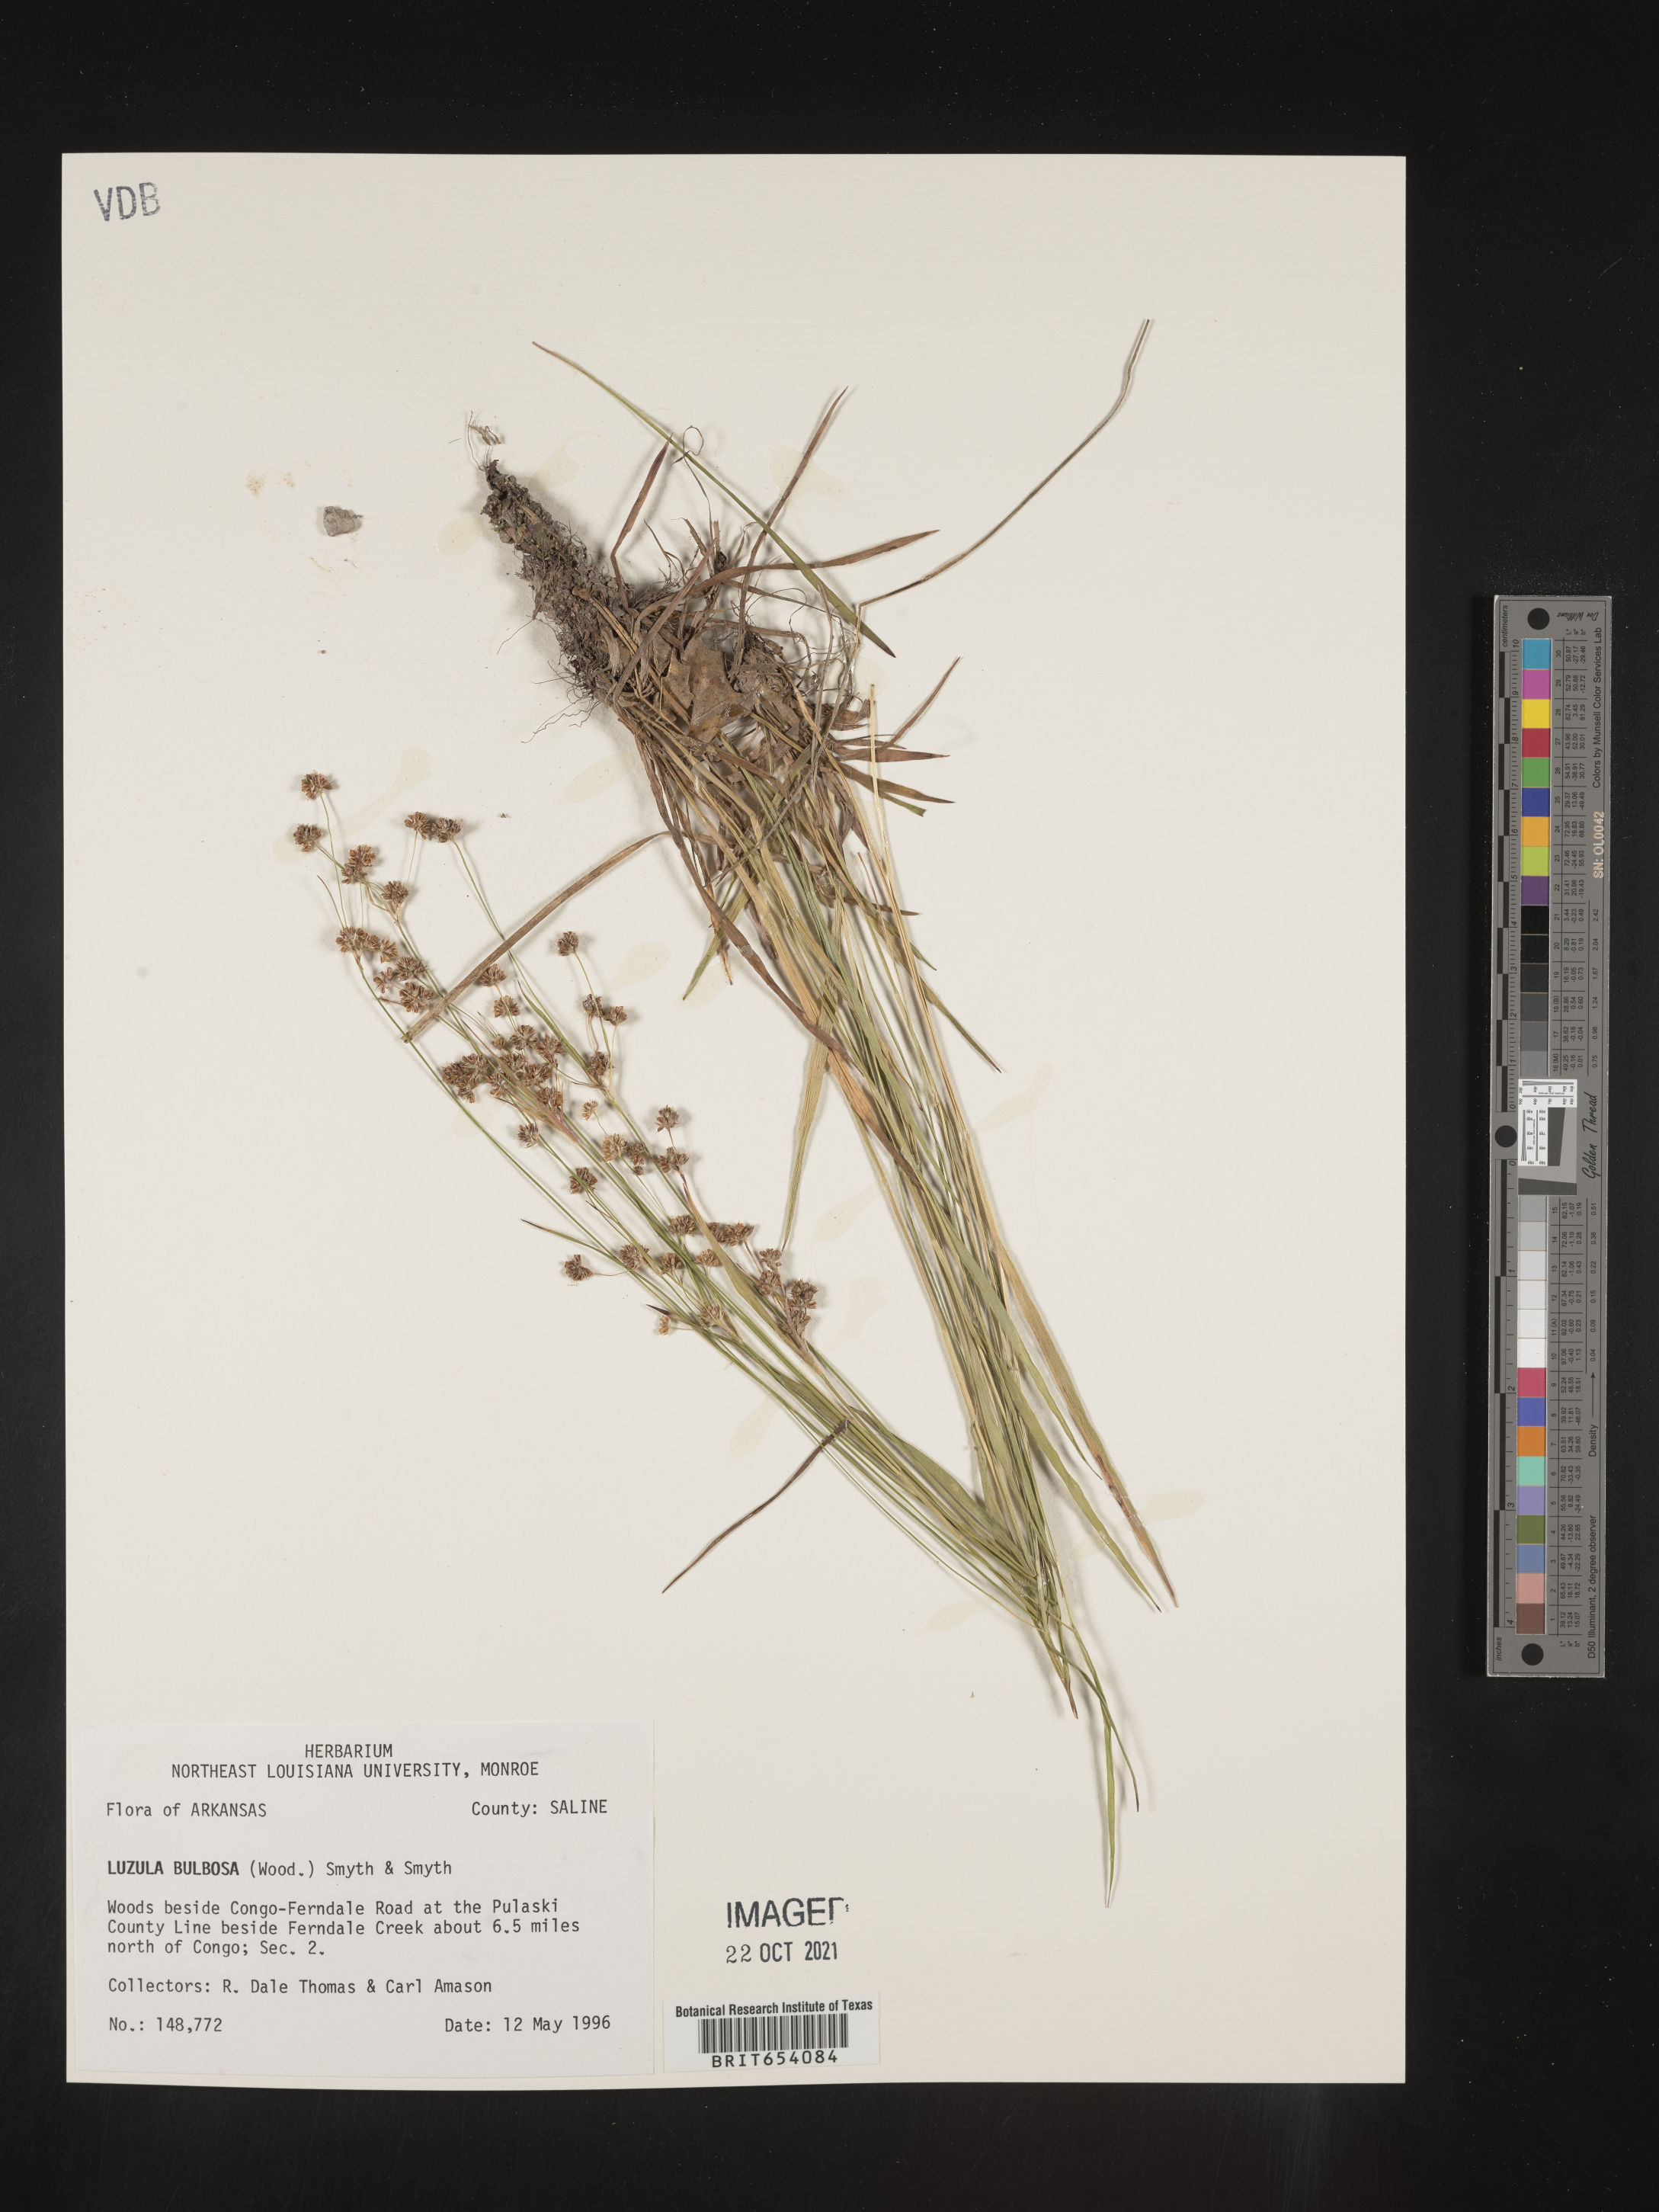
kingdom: Plantae
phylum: Tracheophyta
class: Liliopsida
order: Poales
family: Juncaceae
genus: Luzula
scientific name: Luzula bulbosa
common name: Bulbous woodrush
